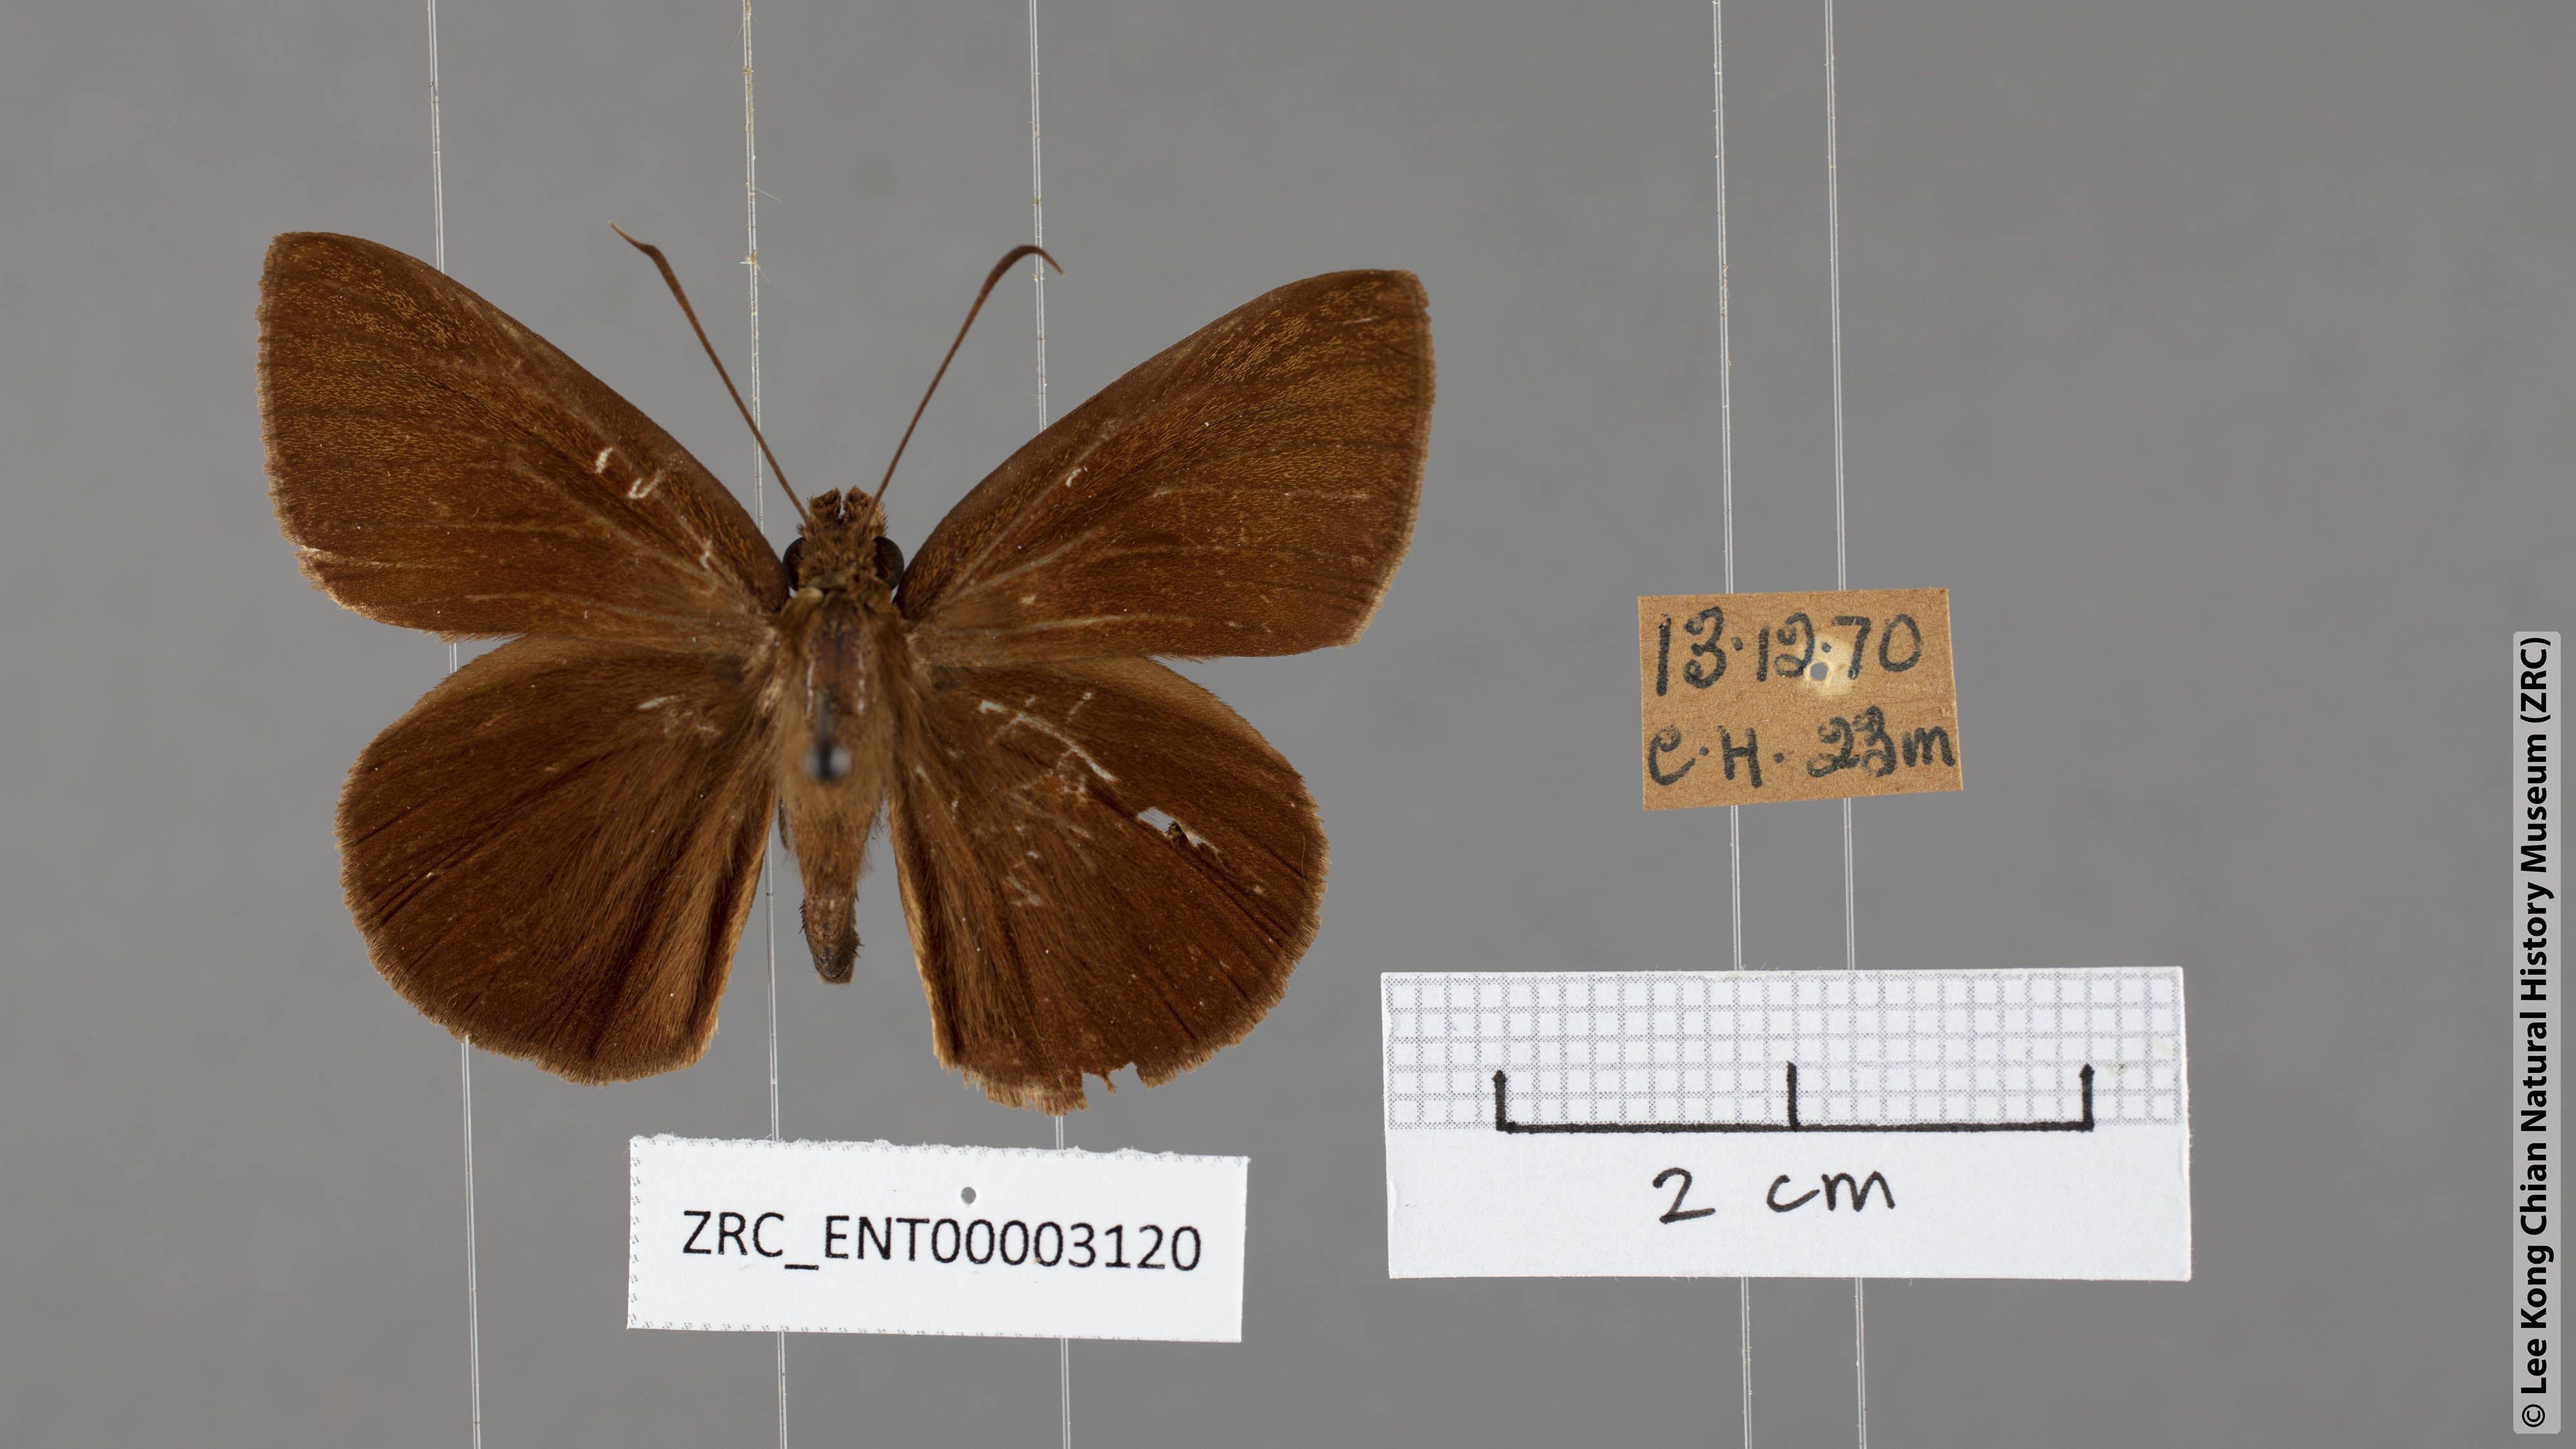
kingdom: Animalia
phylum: Arthropoda
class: Insecta
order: Lepidoptera
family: Hesperiidae
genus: Ancistroides
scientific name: Ancistroides nigrita
